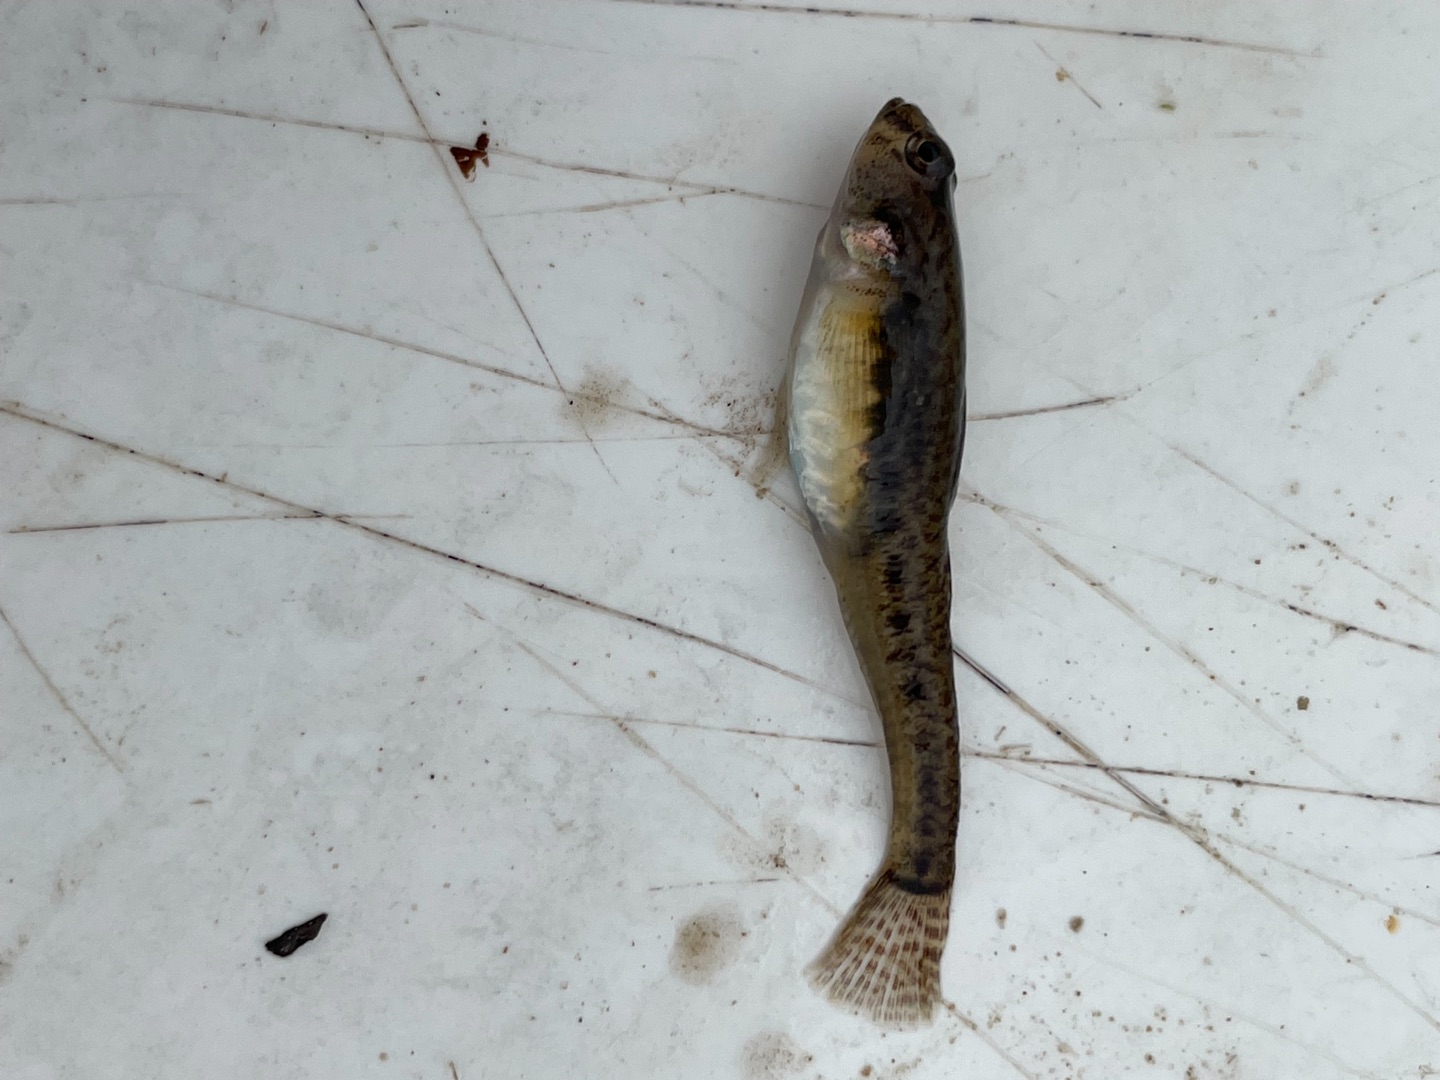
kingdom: Animalia
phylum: Chordata
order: Perciformes
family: Gobiidae
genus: Pomatoschistus
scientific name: Pomatoschistus microps
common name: Lerkutling
